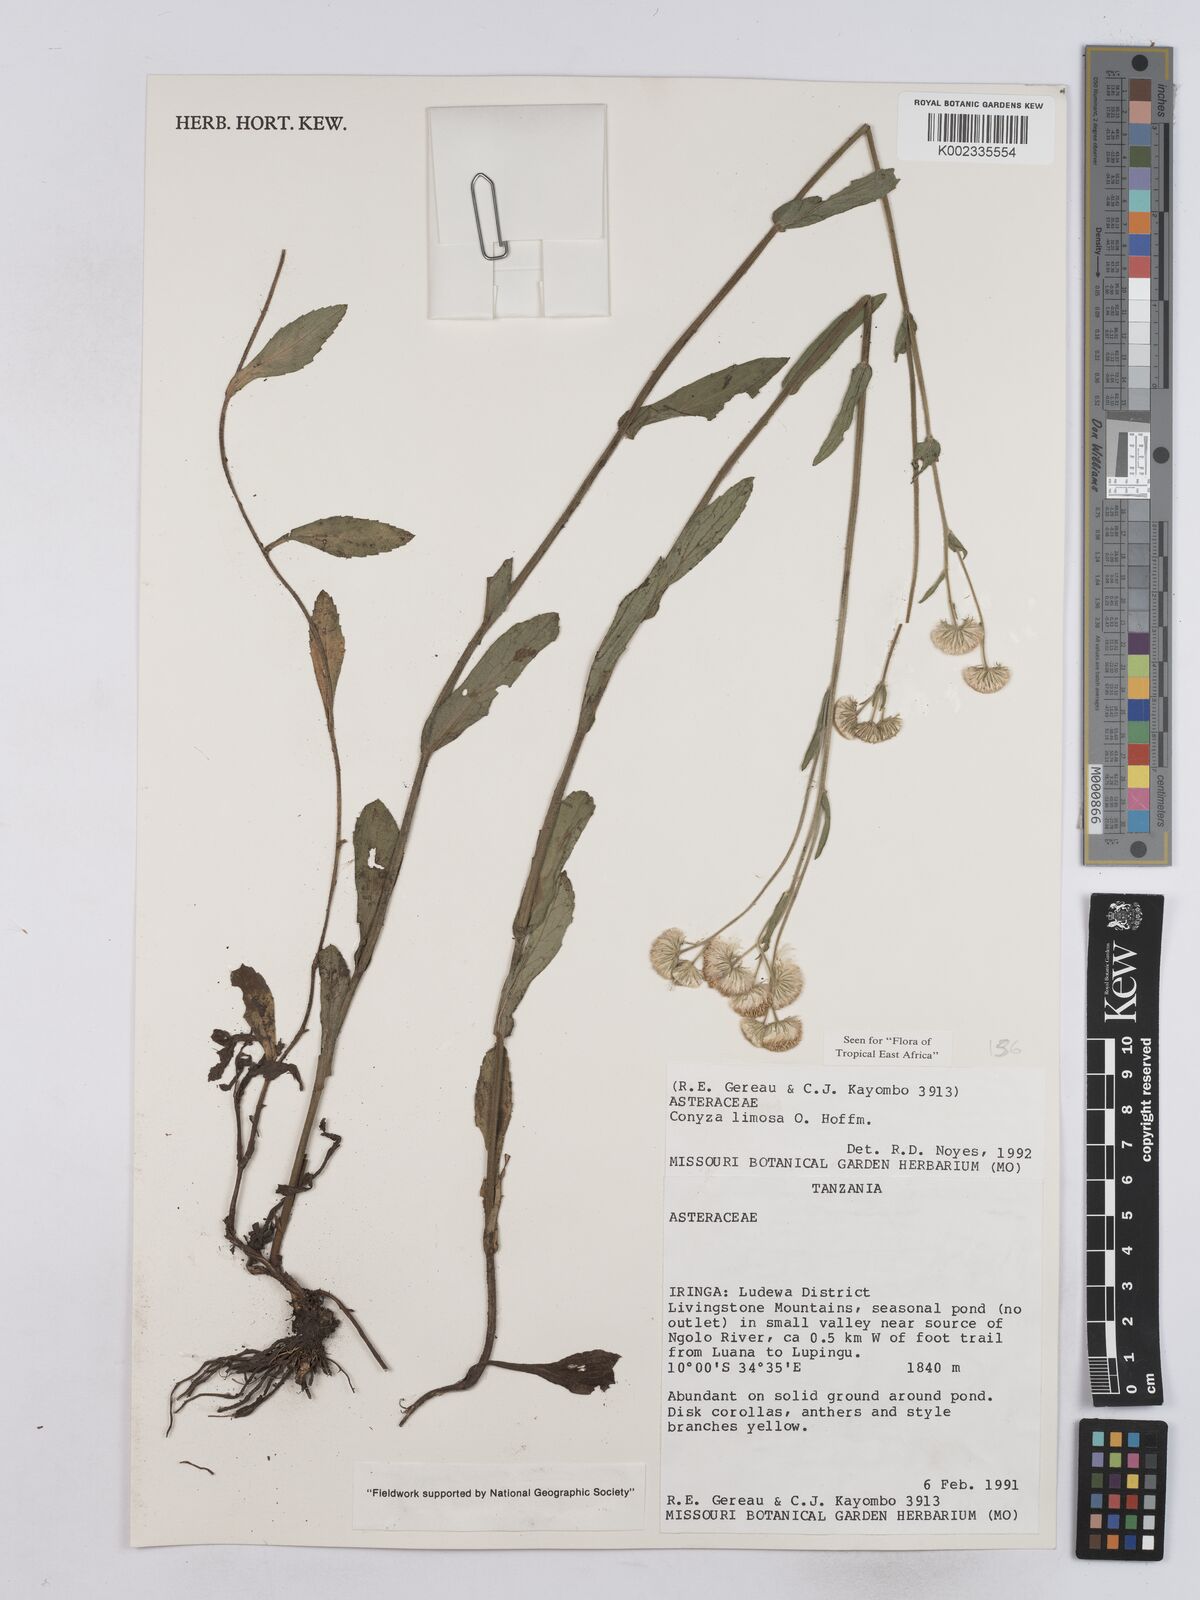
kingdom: Plantae
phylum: Tracheophyta
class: Magnoliopsida
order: Asterales
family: Asteraceae
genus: Conyza
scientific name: Conyza limosa
